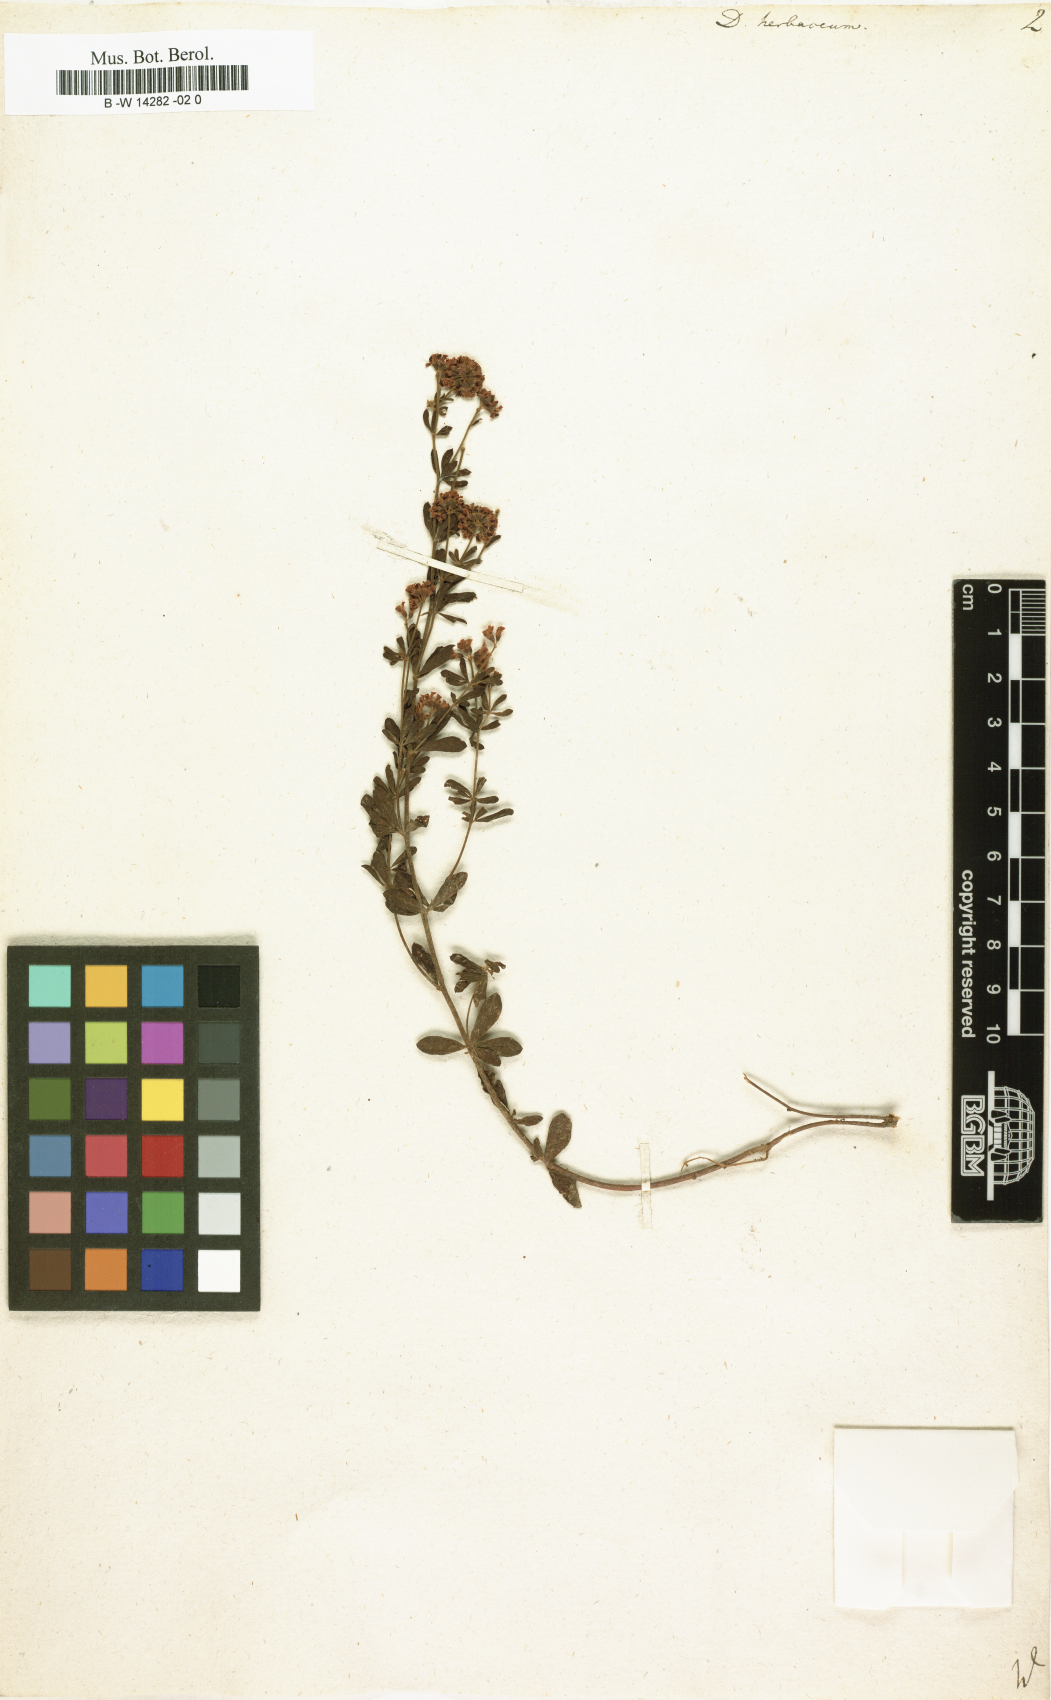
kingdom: Plantae
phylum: Tracheophyta
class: Magnoliopsida
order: Fabales
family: Fabaceae
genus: Lotus
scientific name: Lotus herbaceus
